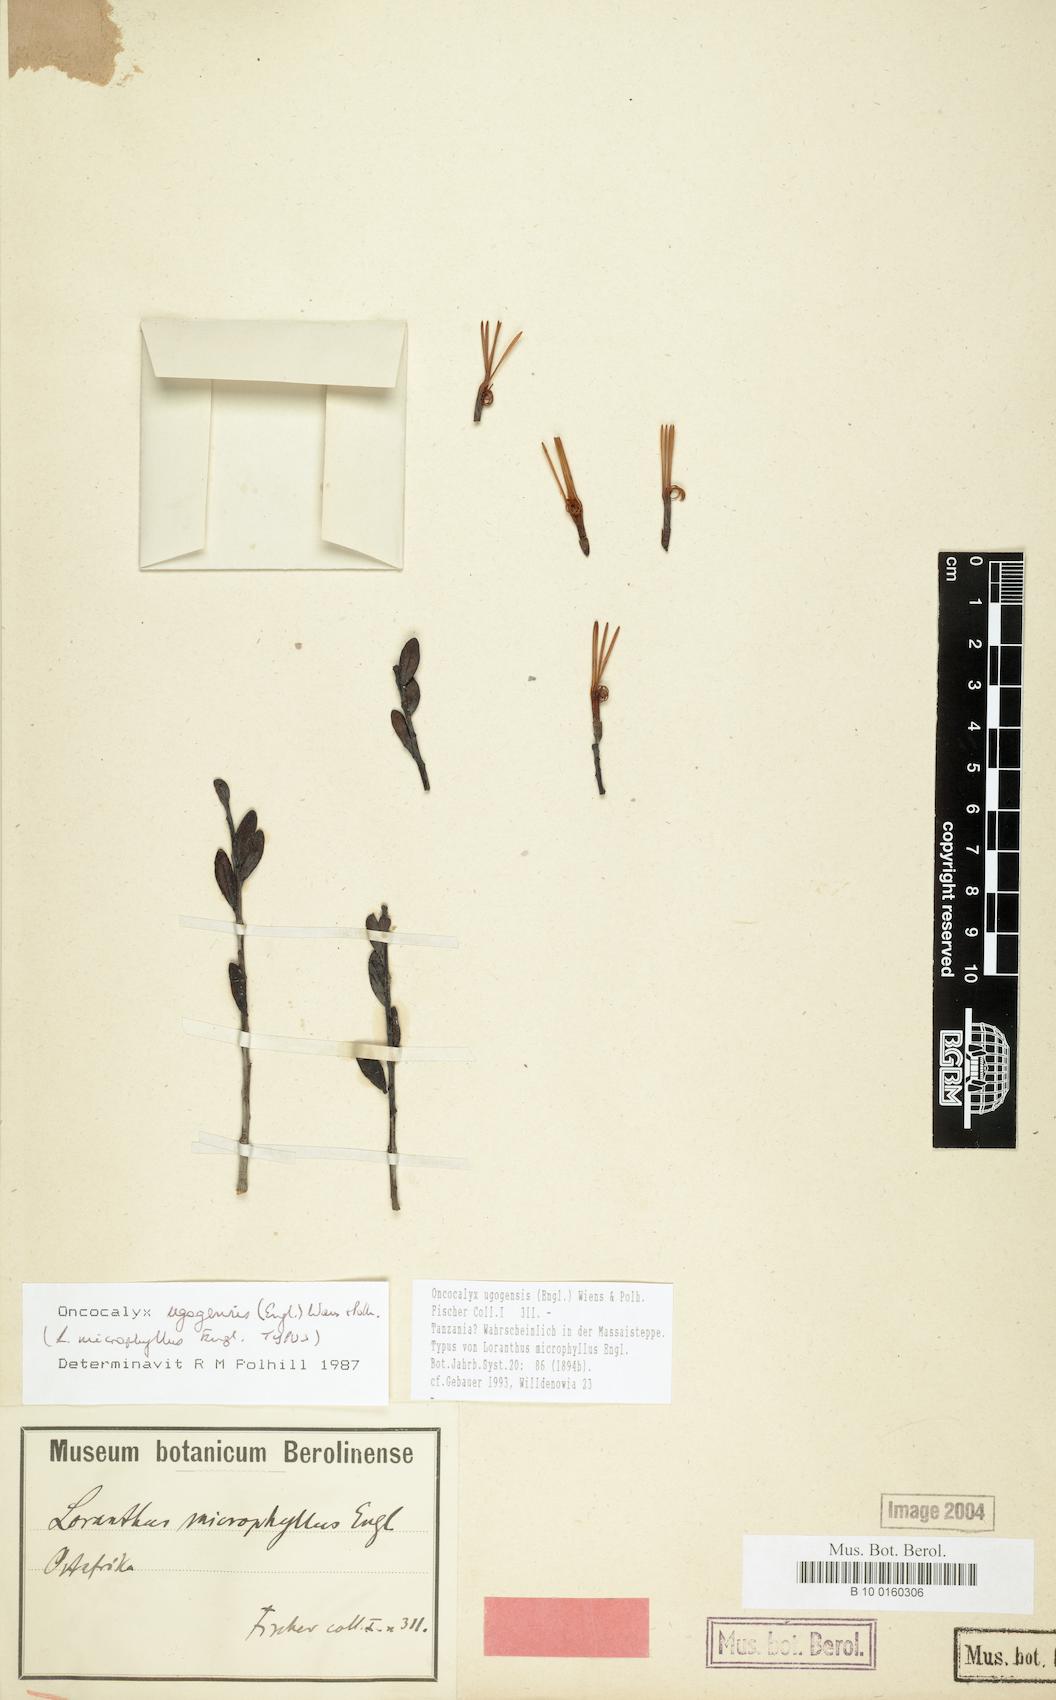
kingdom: Plantae
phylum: Tracheophyta
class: Magnoliopsida
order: Santalales
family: Loranthaceae
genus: Oncocalyx
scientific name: Oncocalyx ugogensis
